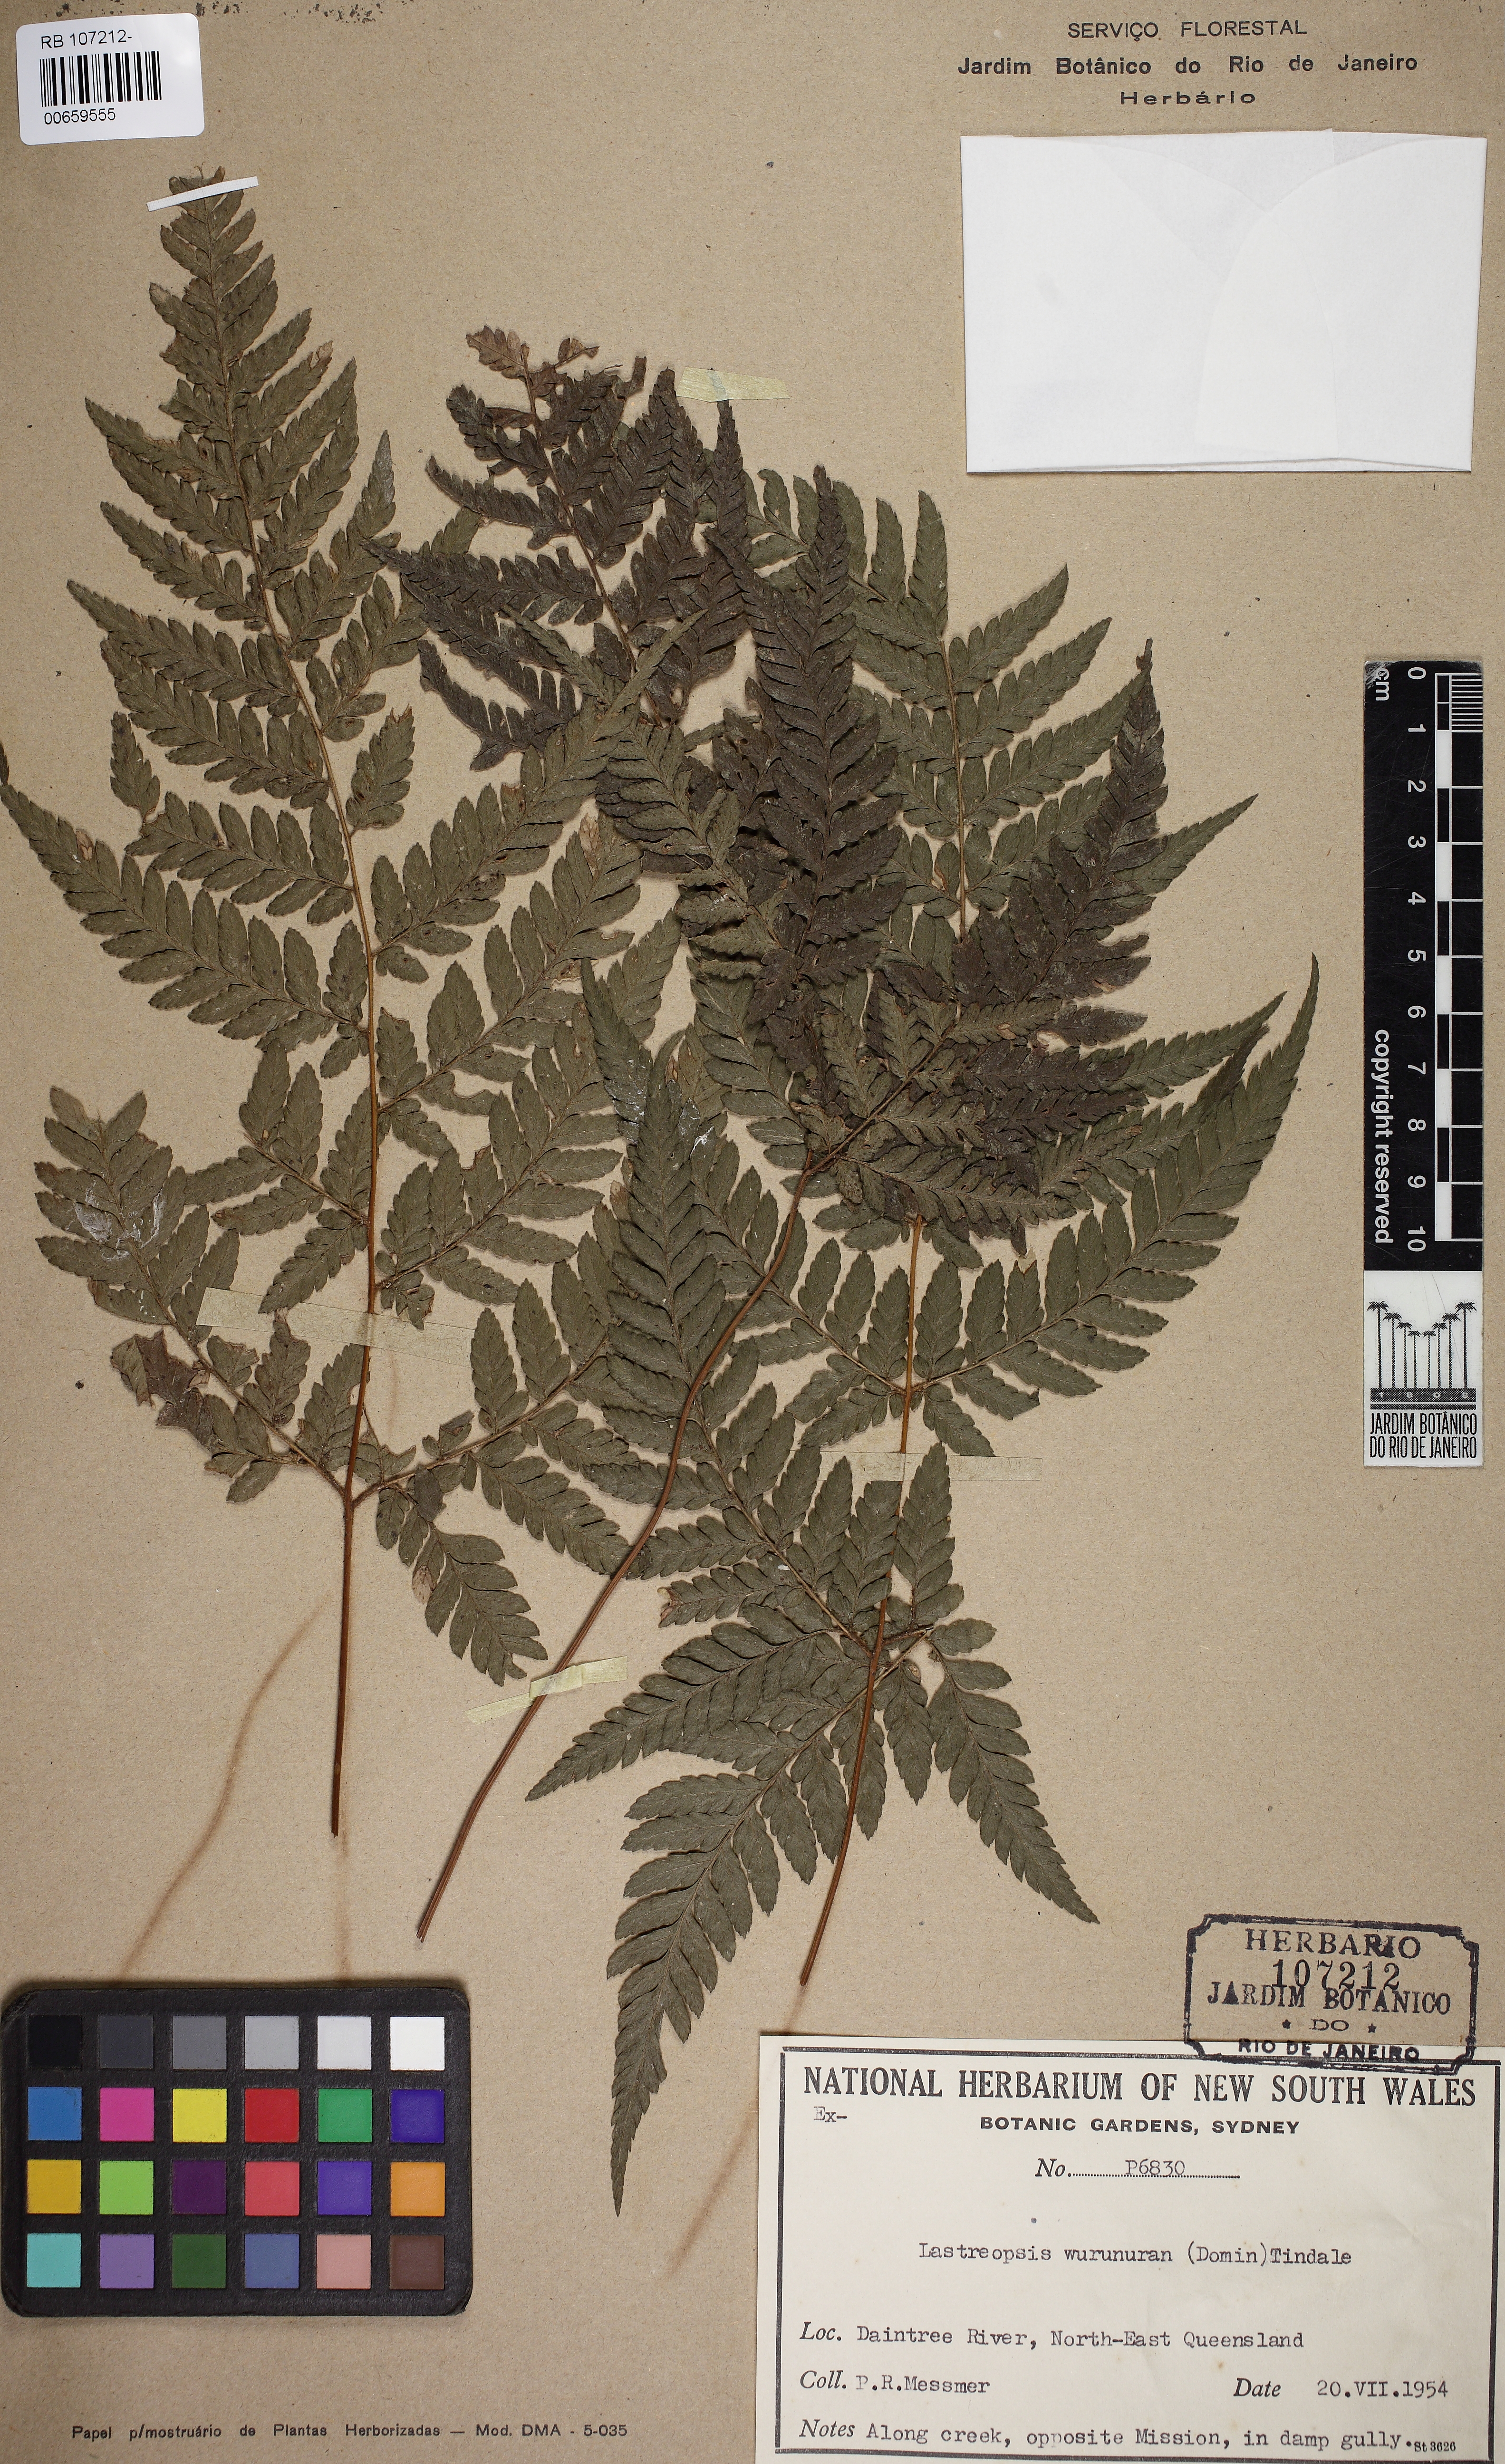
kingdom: Plantae
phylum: Tracheophyta
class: Polypodiopsida
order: Polypodiales
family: Dryopteridaceae
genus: Lastreopsis
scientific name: Lastreopsis wurunuran
